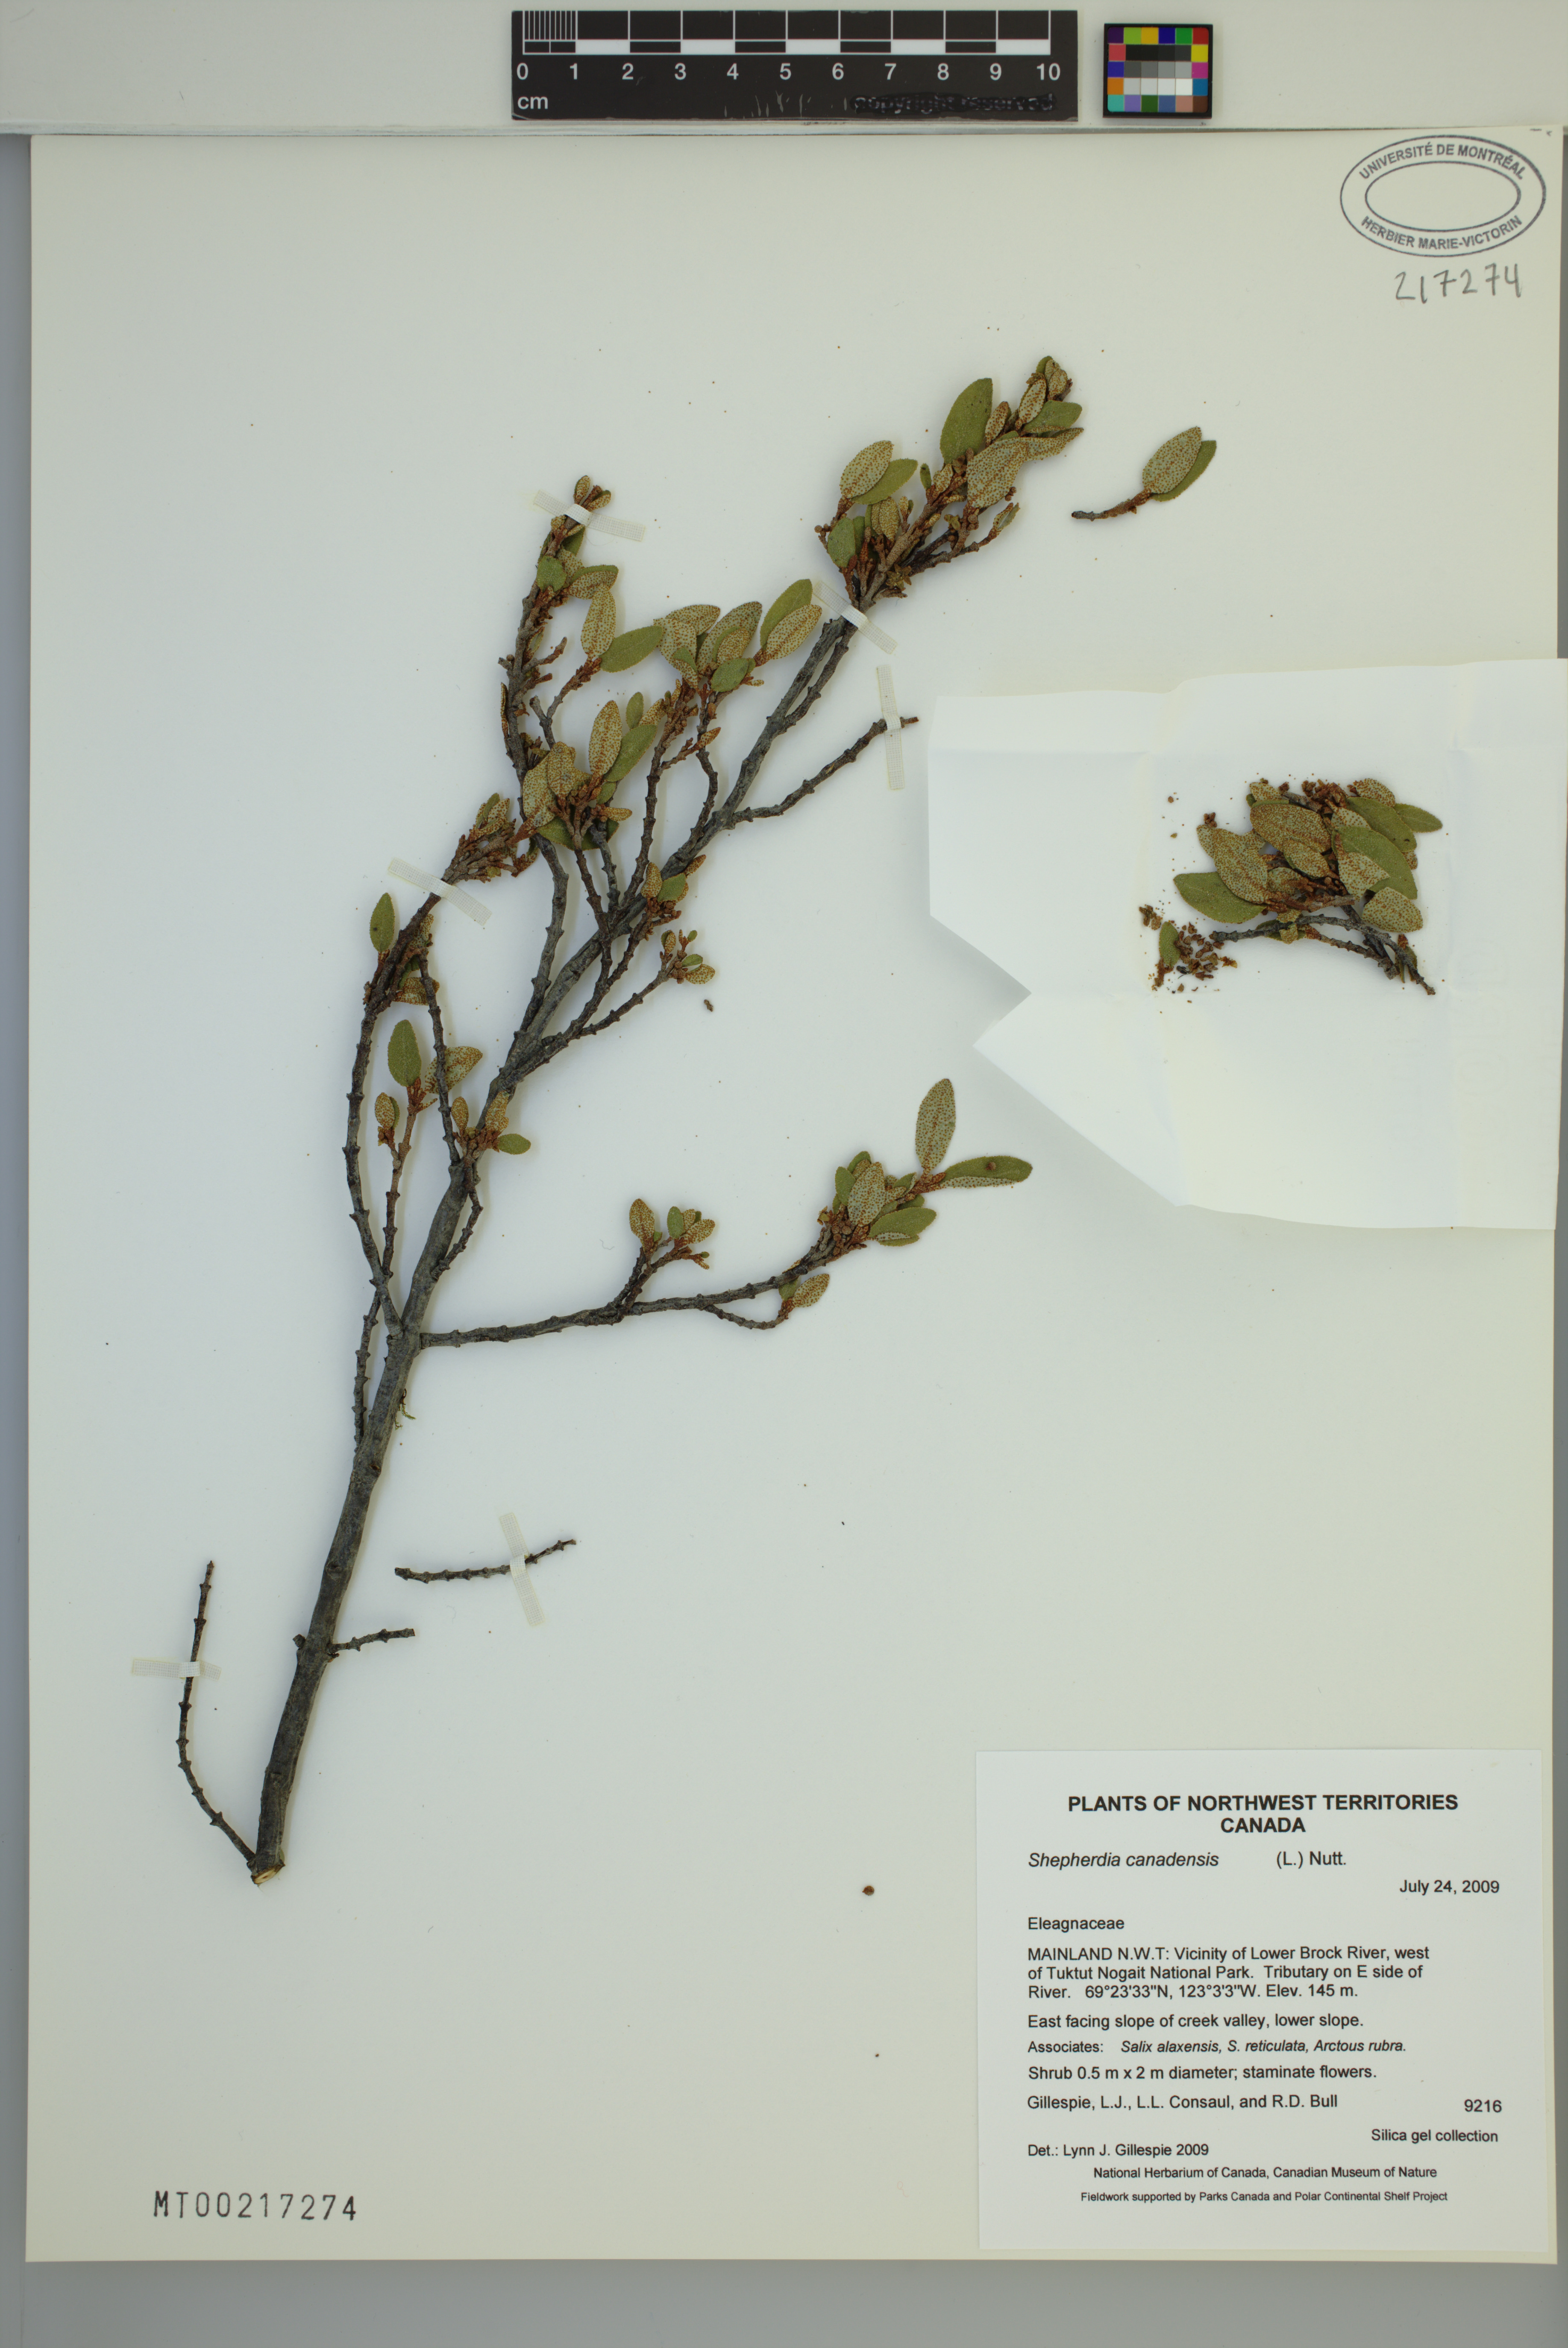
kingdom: Plantae
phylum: Tracheophyta
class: Magnoliopsida
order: Rosales
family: Elaeagnaceae
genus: Shepherdia
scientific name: Shepherdia canadensis
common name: Soapberry
